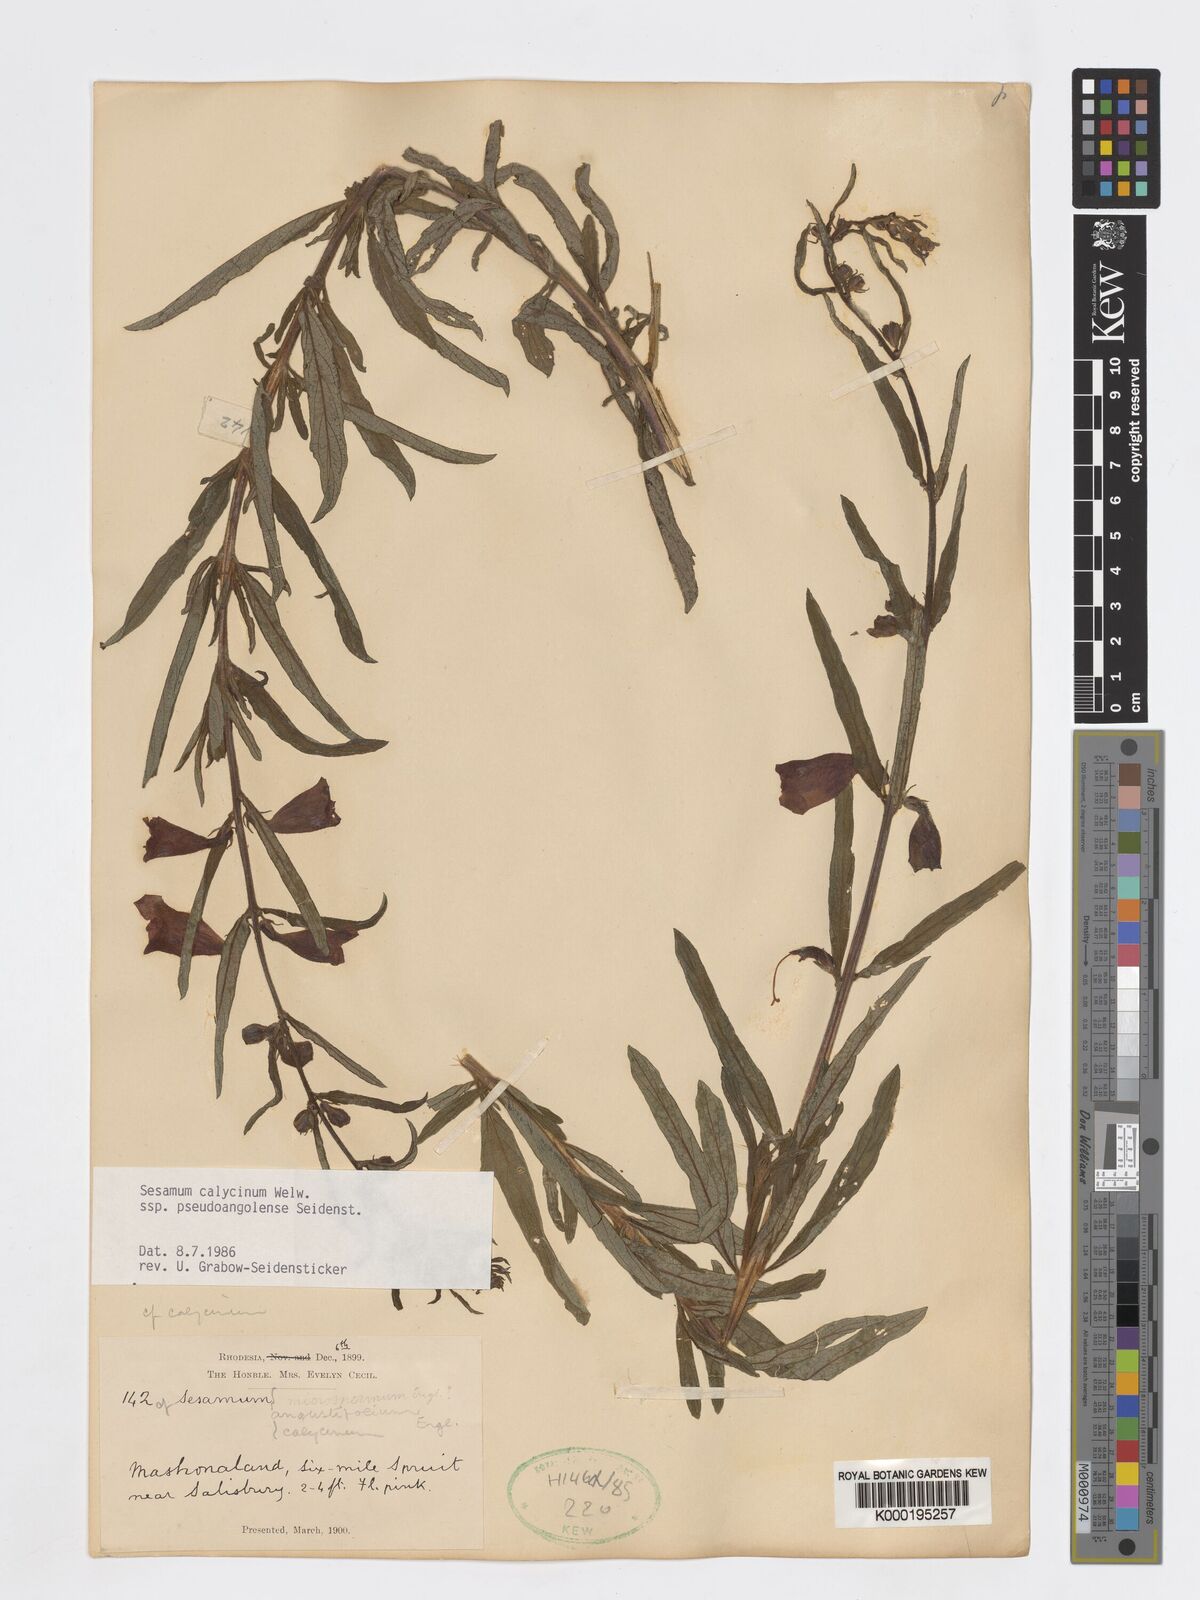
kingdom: Plantae
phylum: Tracheophyta
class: Magnoliopsida
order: Lamiales
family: Pedaliaceae
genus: Sesamum
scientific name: Sesamum calycinum
